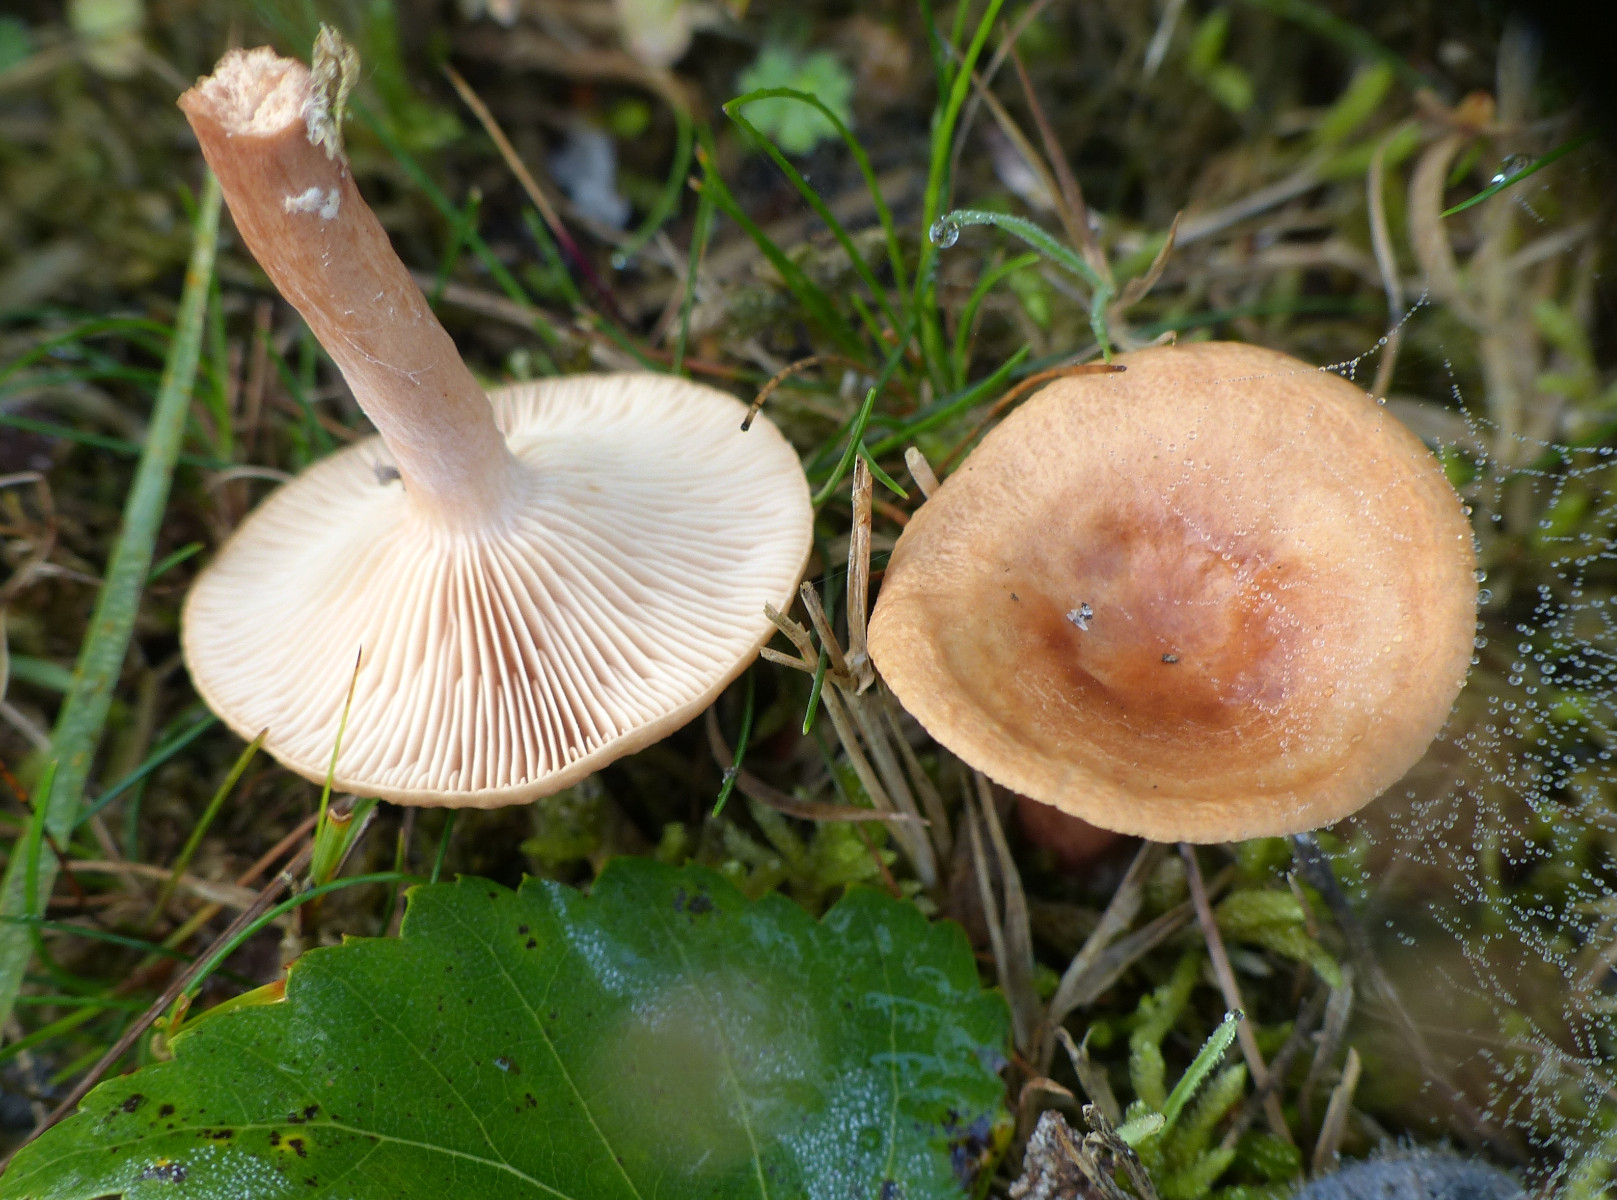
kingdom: Fungi
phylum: Basidiomycota
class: Agaricomycetes
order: Russulales
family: Russulaceae
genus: Lactarius
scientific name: Lactarius tabidus
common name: rynket mælkehat
